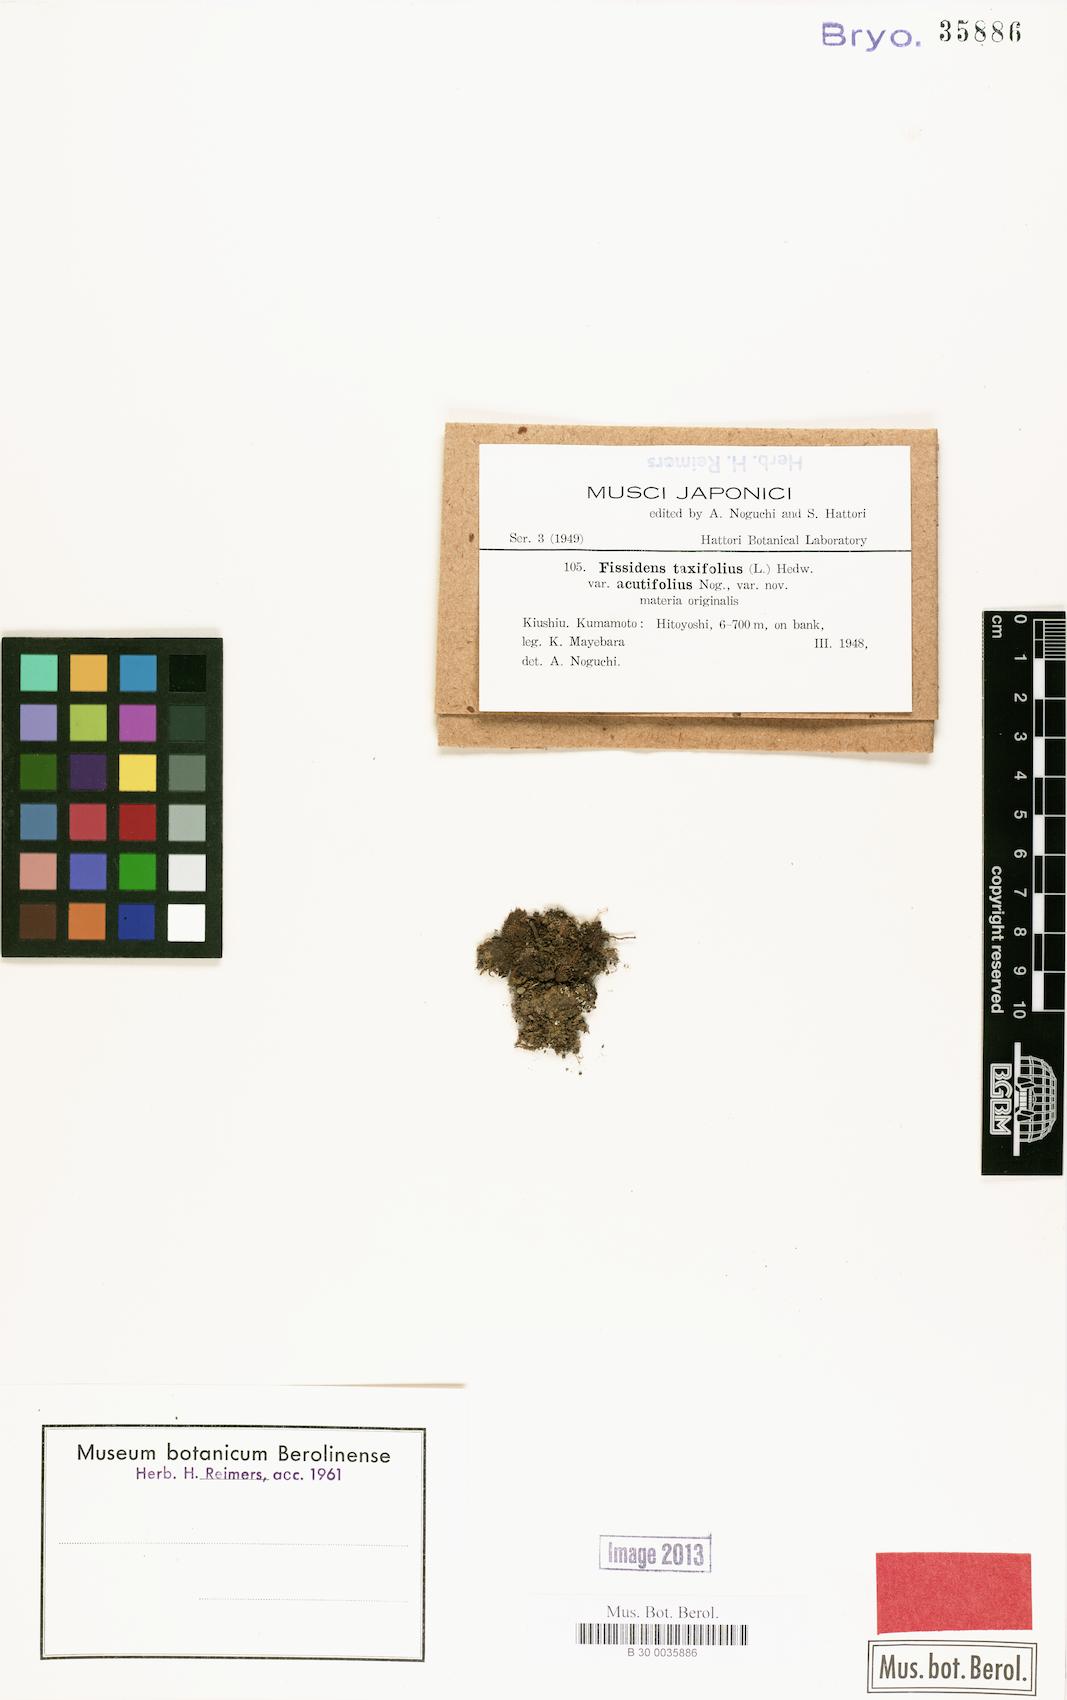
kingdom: Plantae
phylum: Bryophyta
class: Bryopsida
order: Dicranales
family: Fissidentaceae
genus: Fissidens
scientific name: Fissidens taxifolius
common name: Yew-leaved pocket moss
